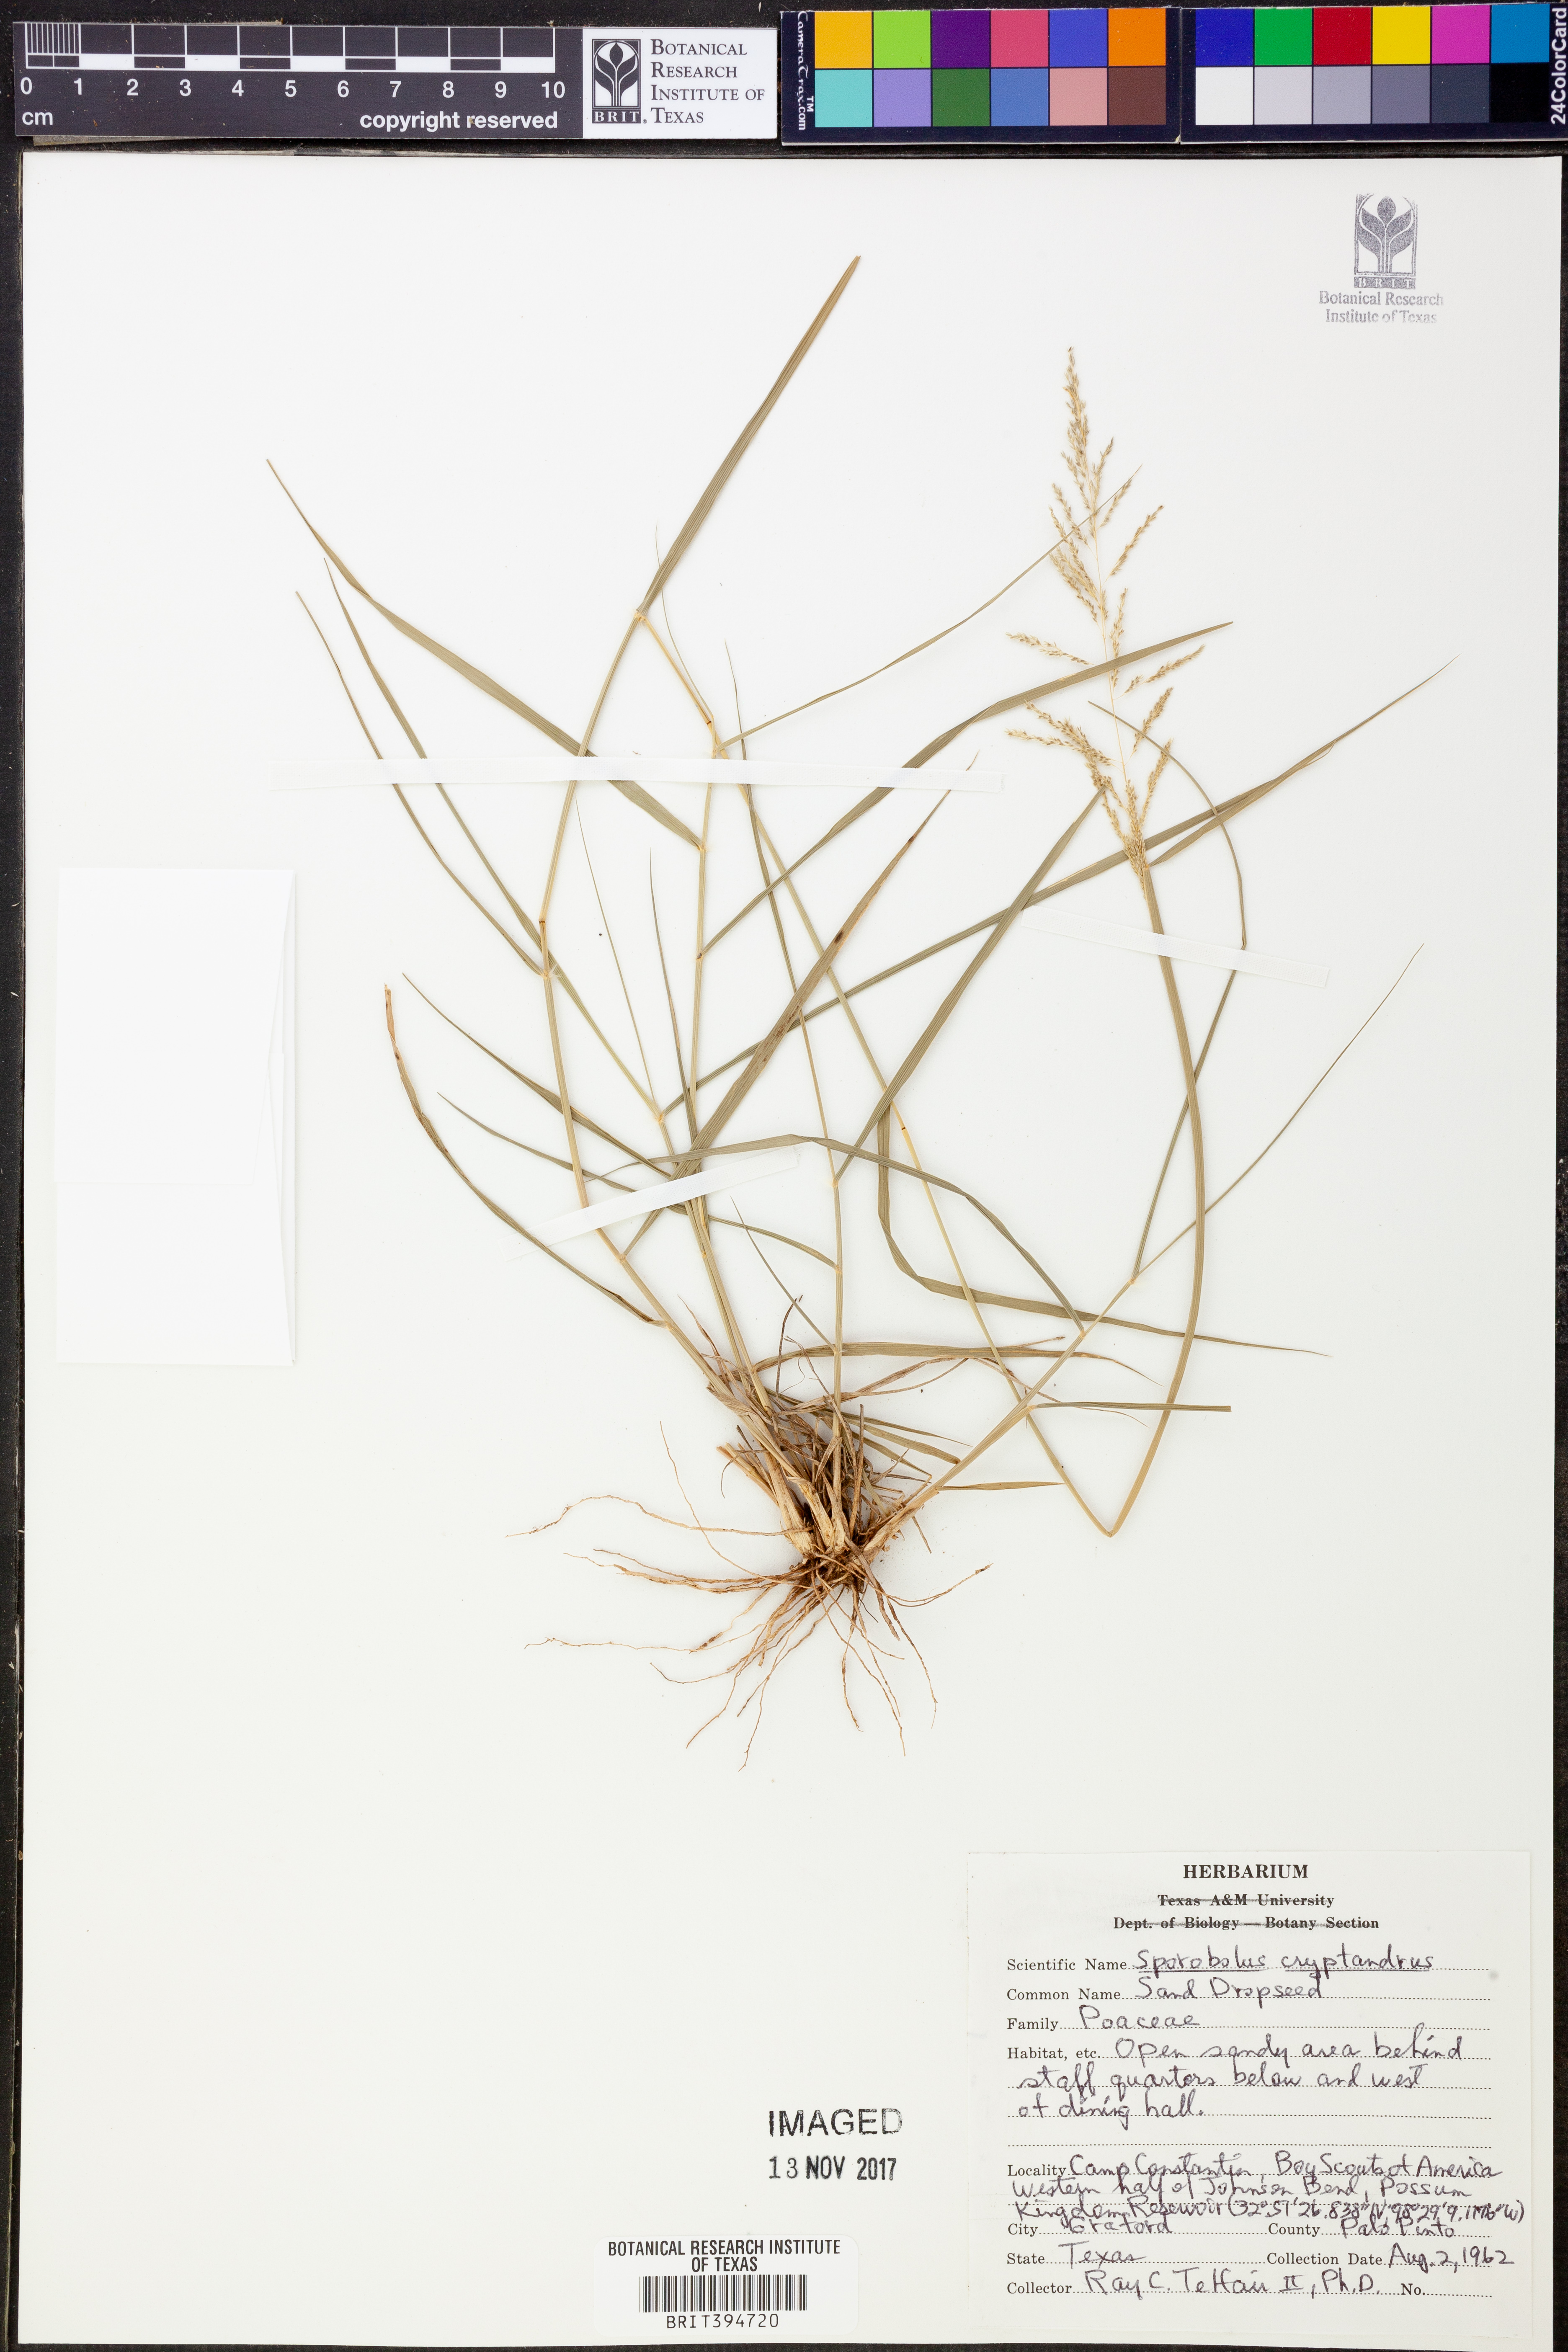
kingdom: Plantae
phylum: Tracheophyta
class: Liliopsida
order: Poales
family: Poaceae
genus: Sporobolus
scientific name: Sporobolus cryptandrus
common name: Sand dropseed
